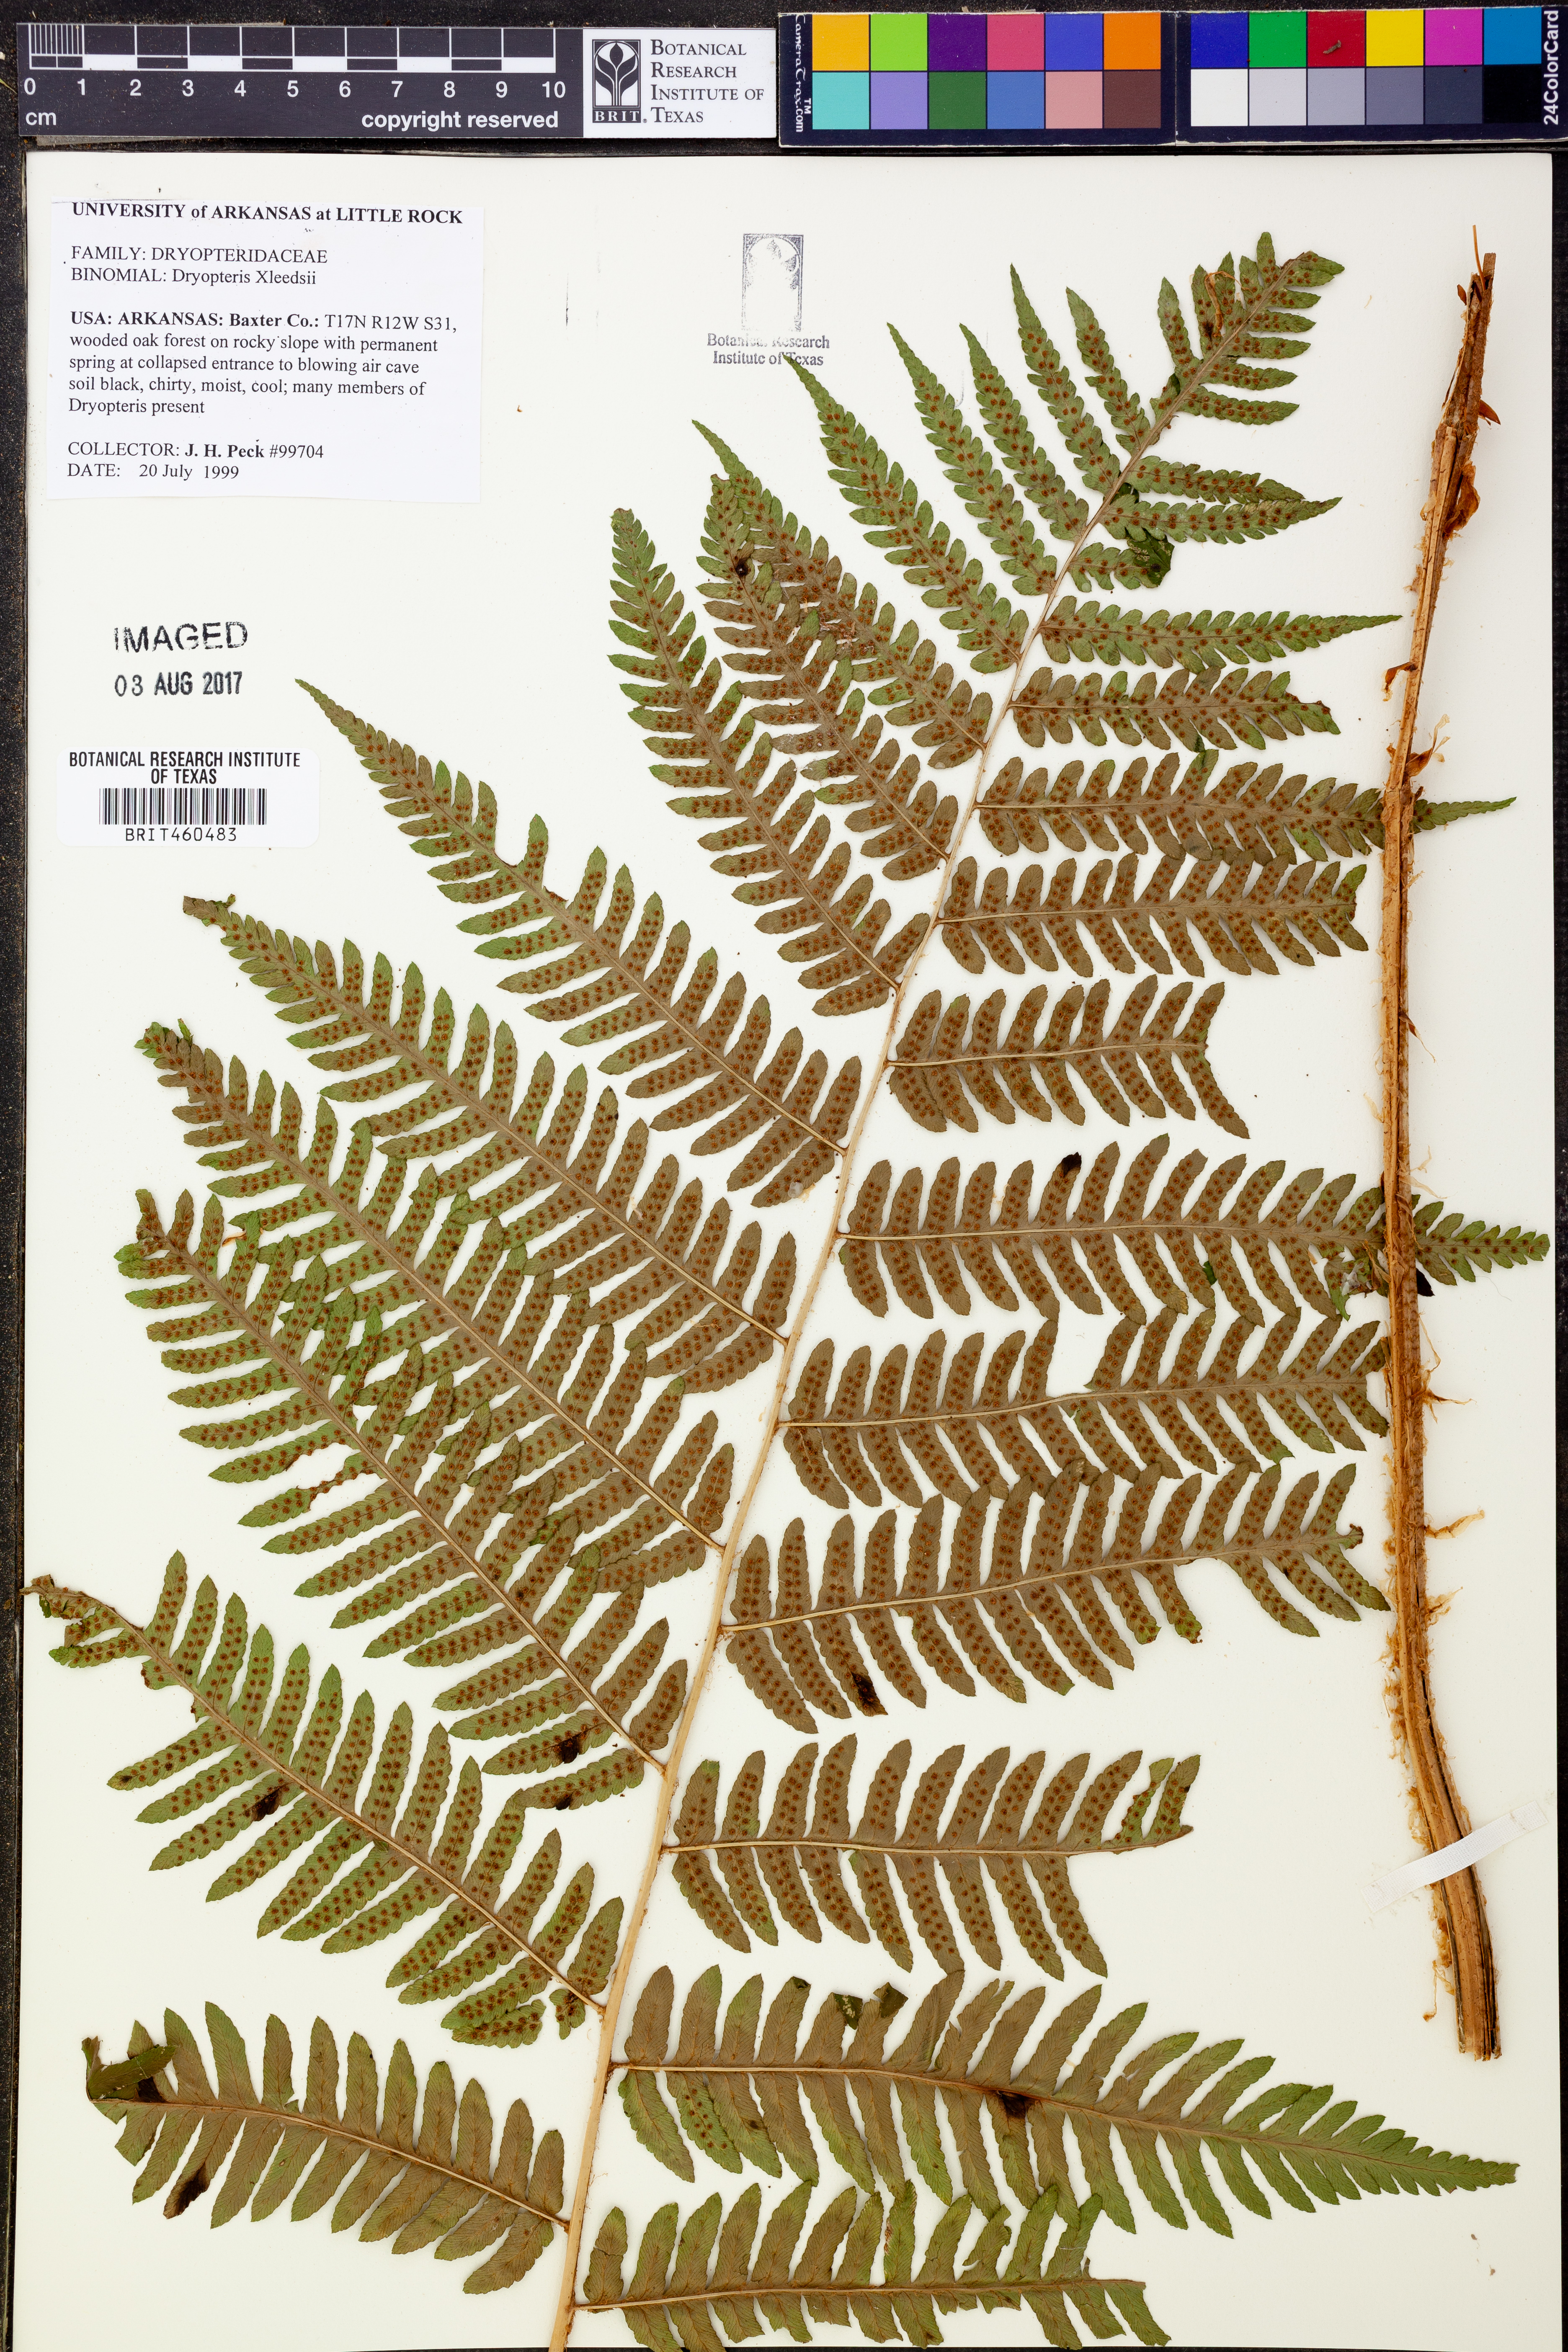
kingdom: Plantae
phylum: Tracheophyta
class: Polypodiopsida
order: Polypodiales
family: Dryopteridaceae
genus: Dryopteris
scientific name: Dryopteris leedsii
